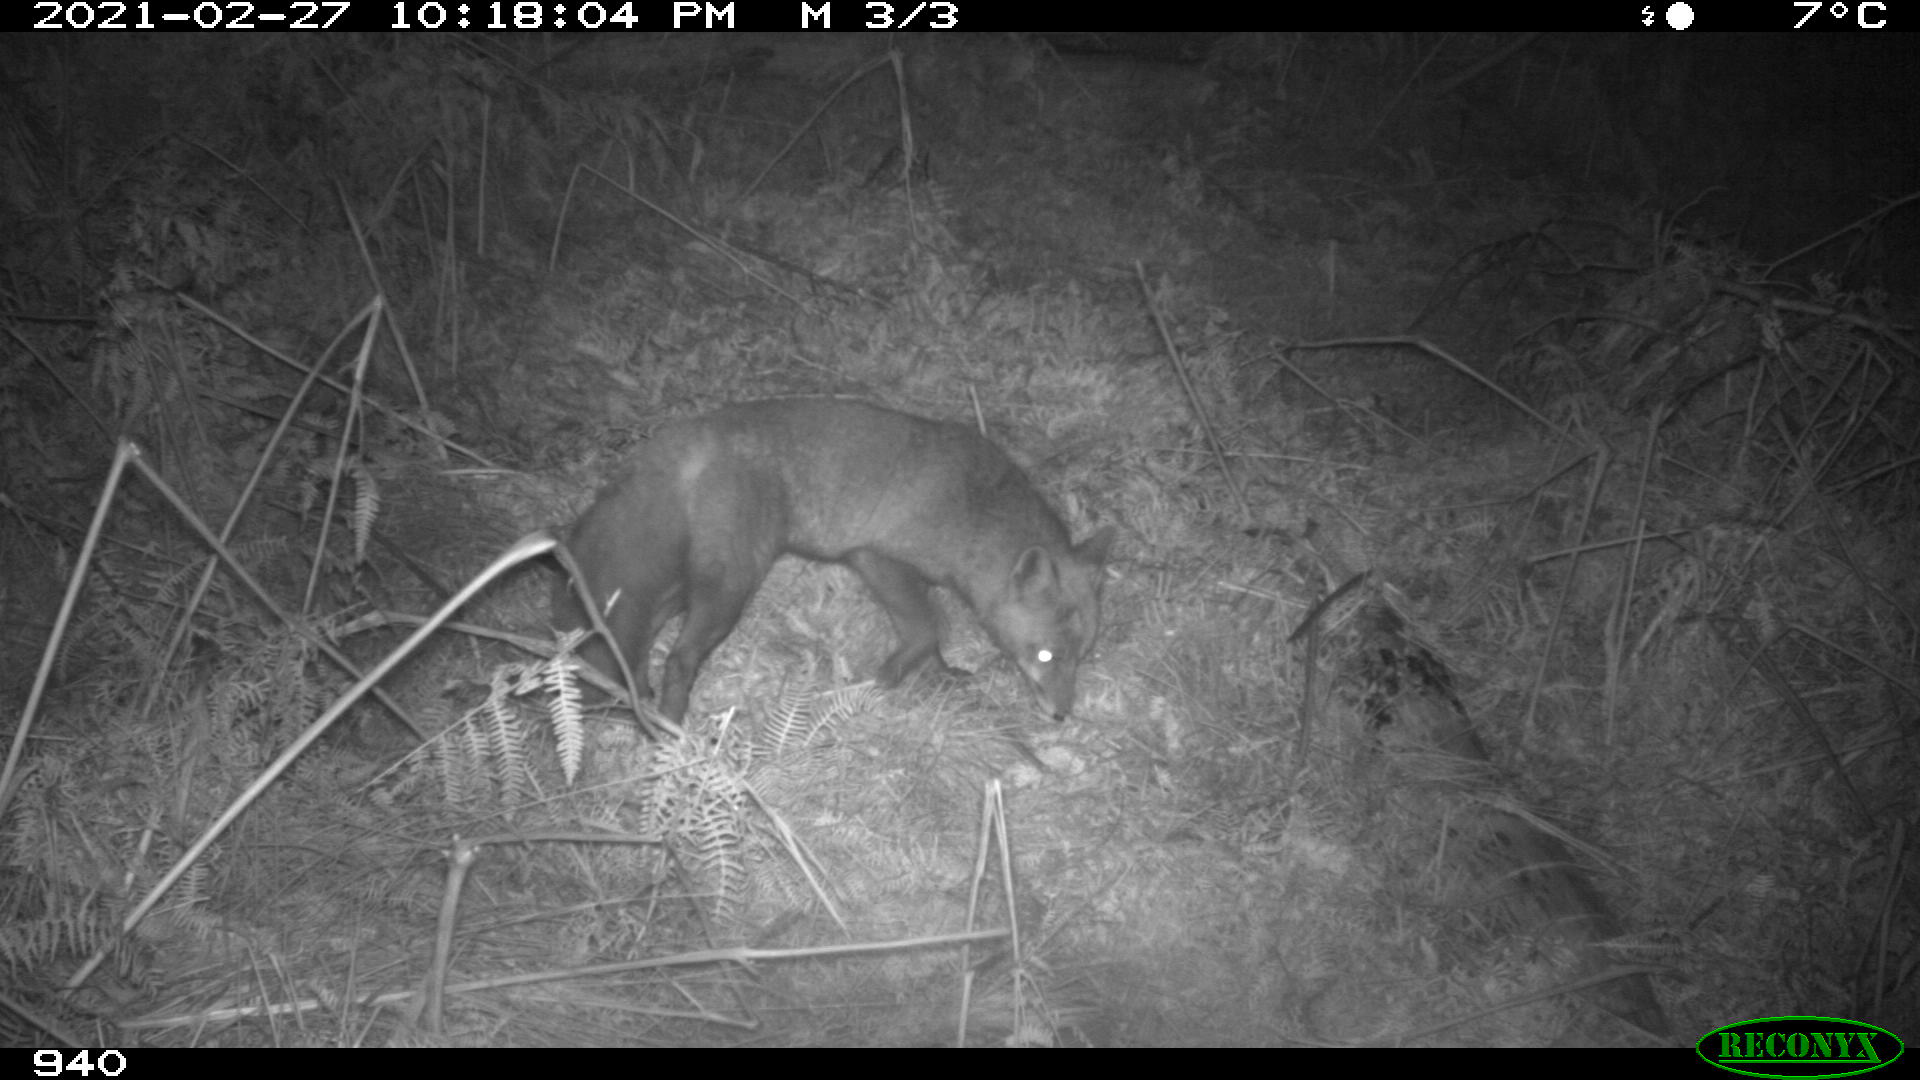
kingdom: Animalia
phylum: Chordata
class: Mammalia
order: Carnivora
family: Canidae
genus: Vulpes
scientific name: Vulpes vulpes
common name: Red fox
